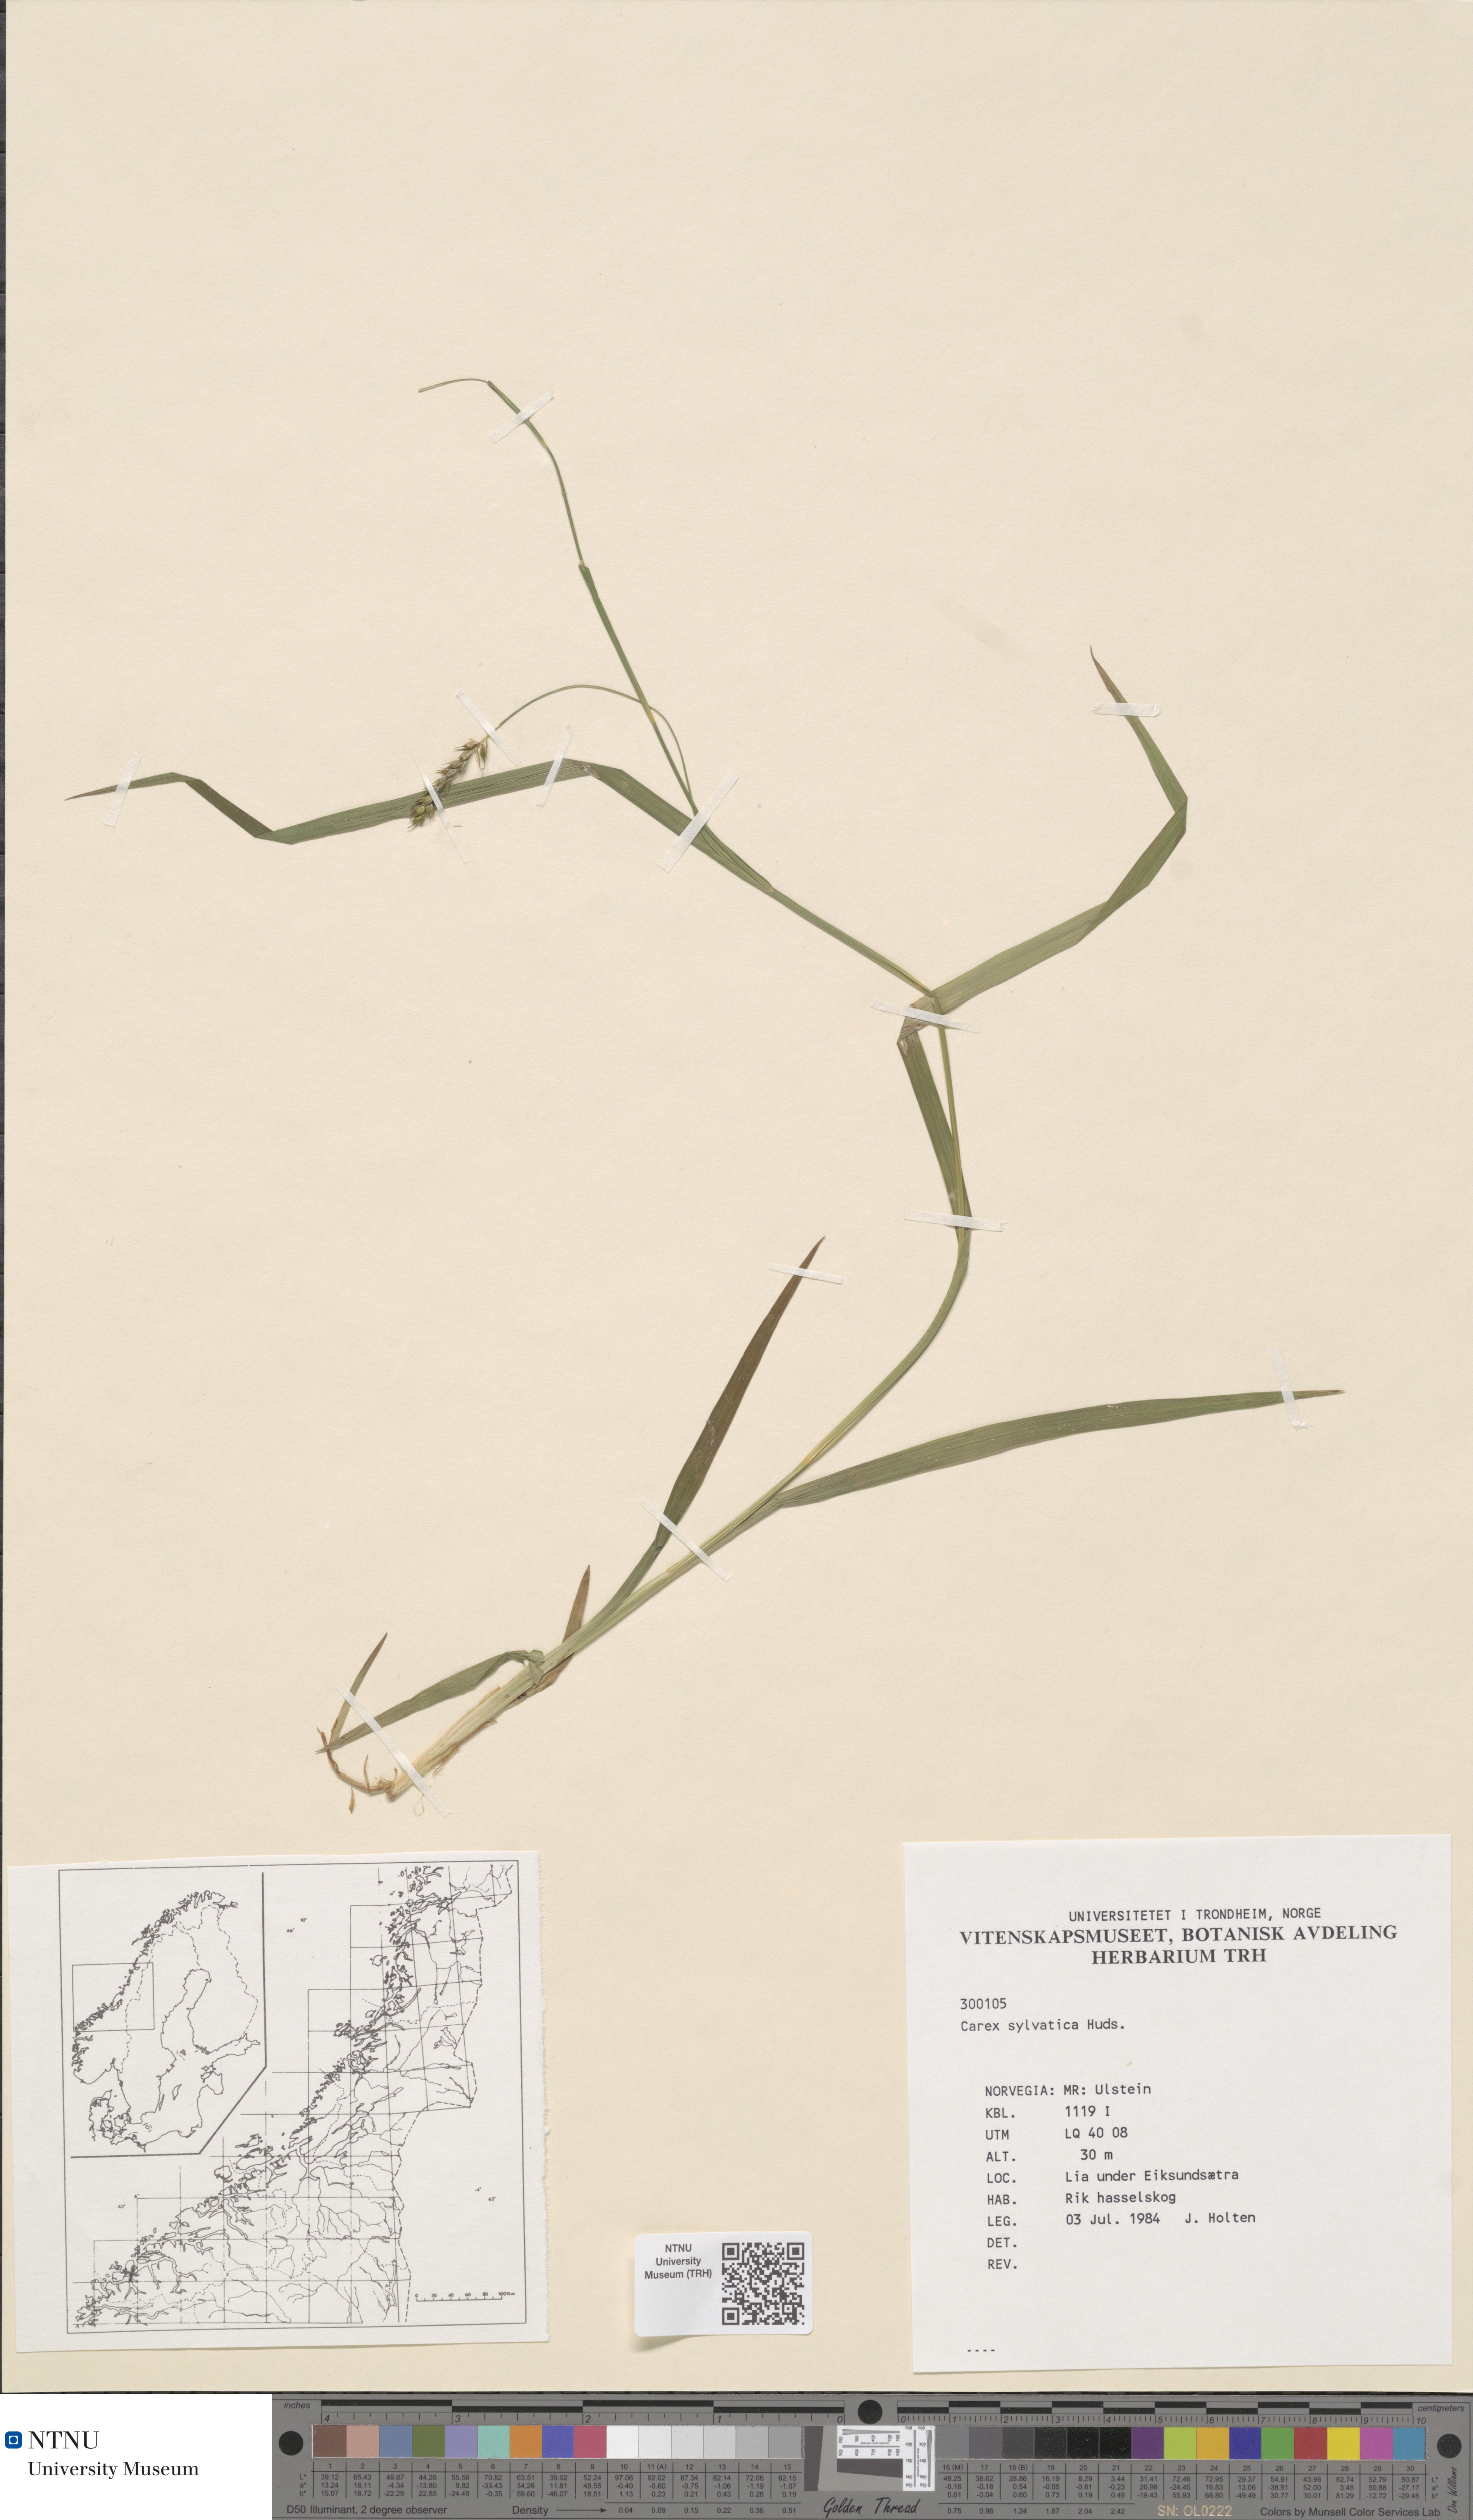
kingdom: Plantae
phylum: Tracheophyta
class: Liliopsida
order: Poales
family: Cyperaceae
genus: Carex
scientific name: Carex sylvatica
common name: Wood-sedge
